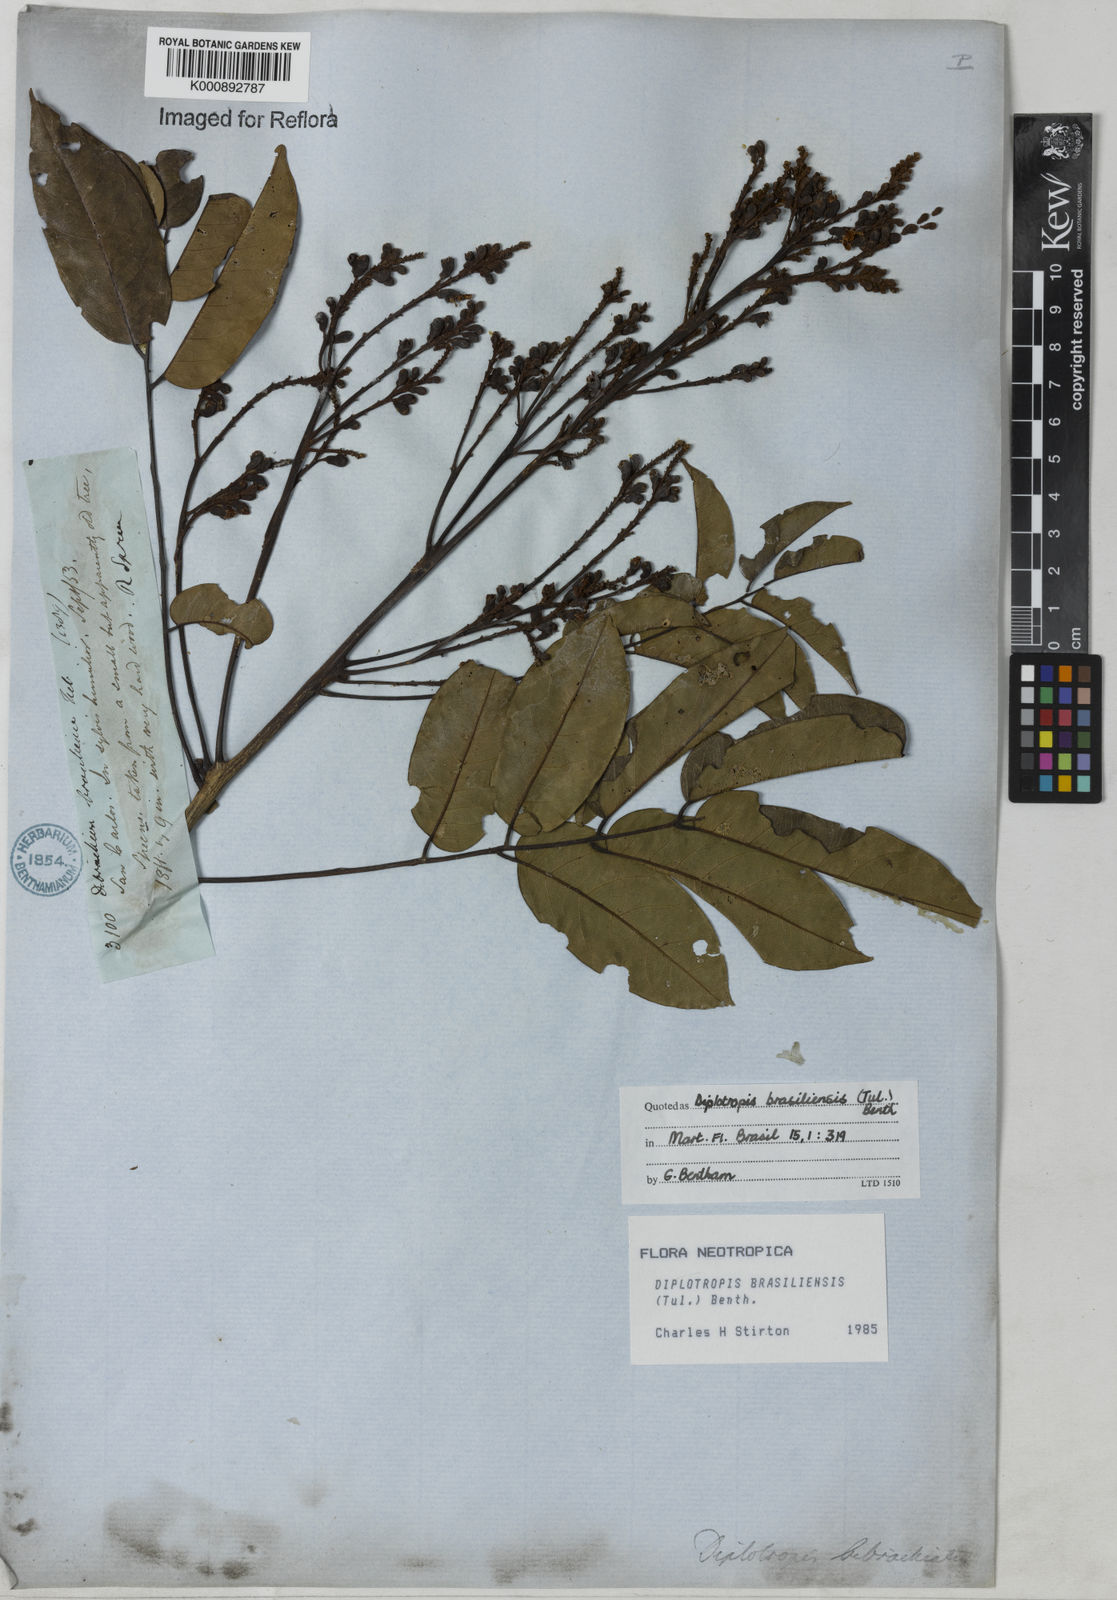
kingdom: Plantae
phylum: Tracheophyta
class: Magnoliopsida
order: Fabales
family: Fabaceae
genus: Diplotropis
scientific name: Diplotropis brasiliensis
